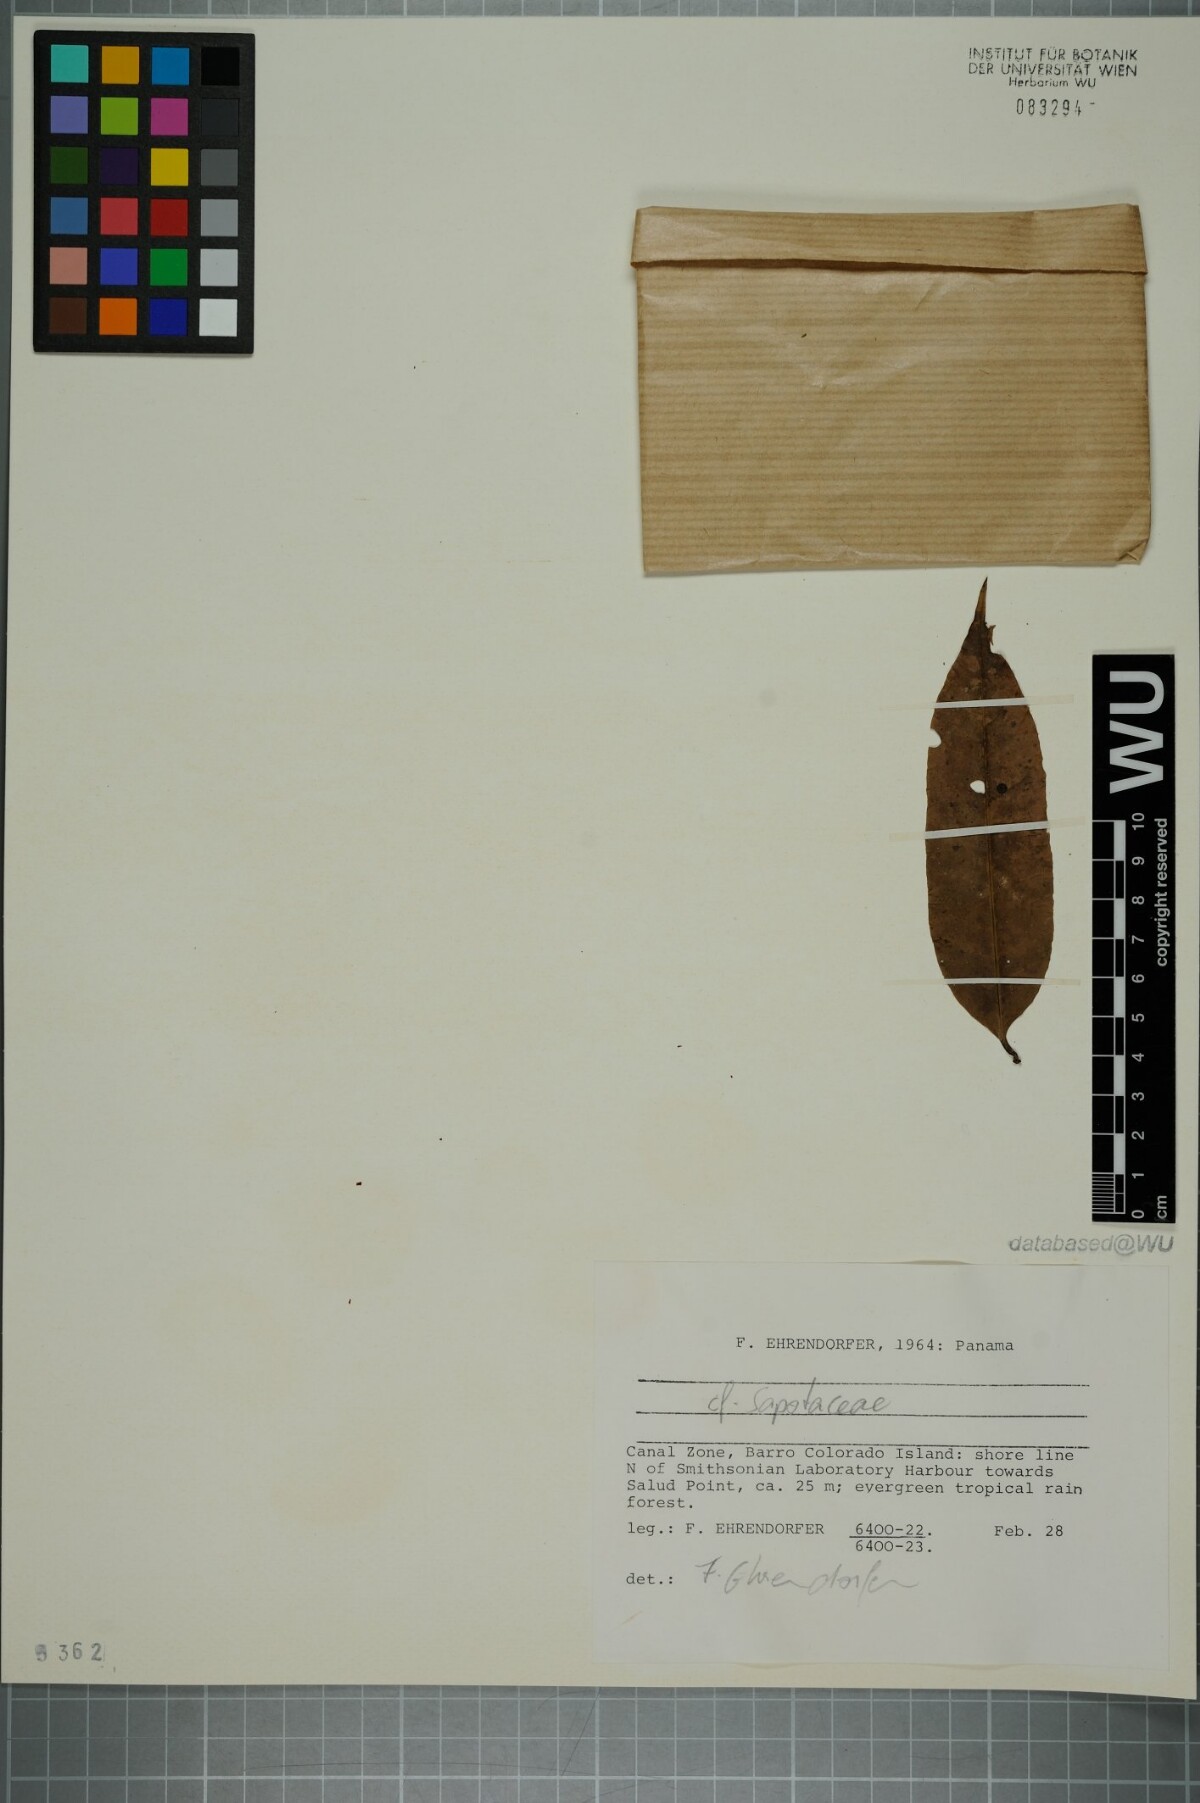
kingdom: Plantae
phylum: Tracheophyta
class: Magnoliopsida
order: Ericales
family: Sapotaceae
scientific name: Sapotaceae
